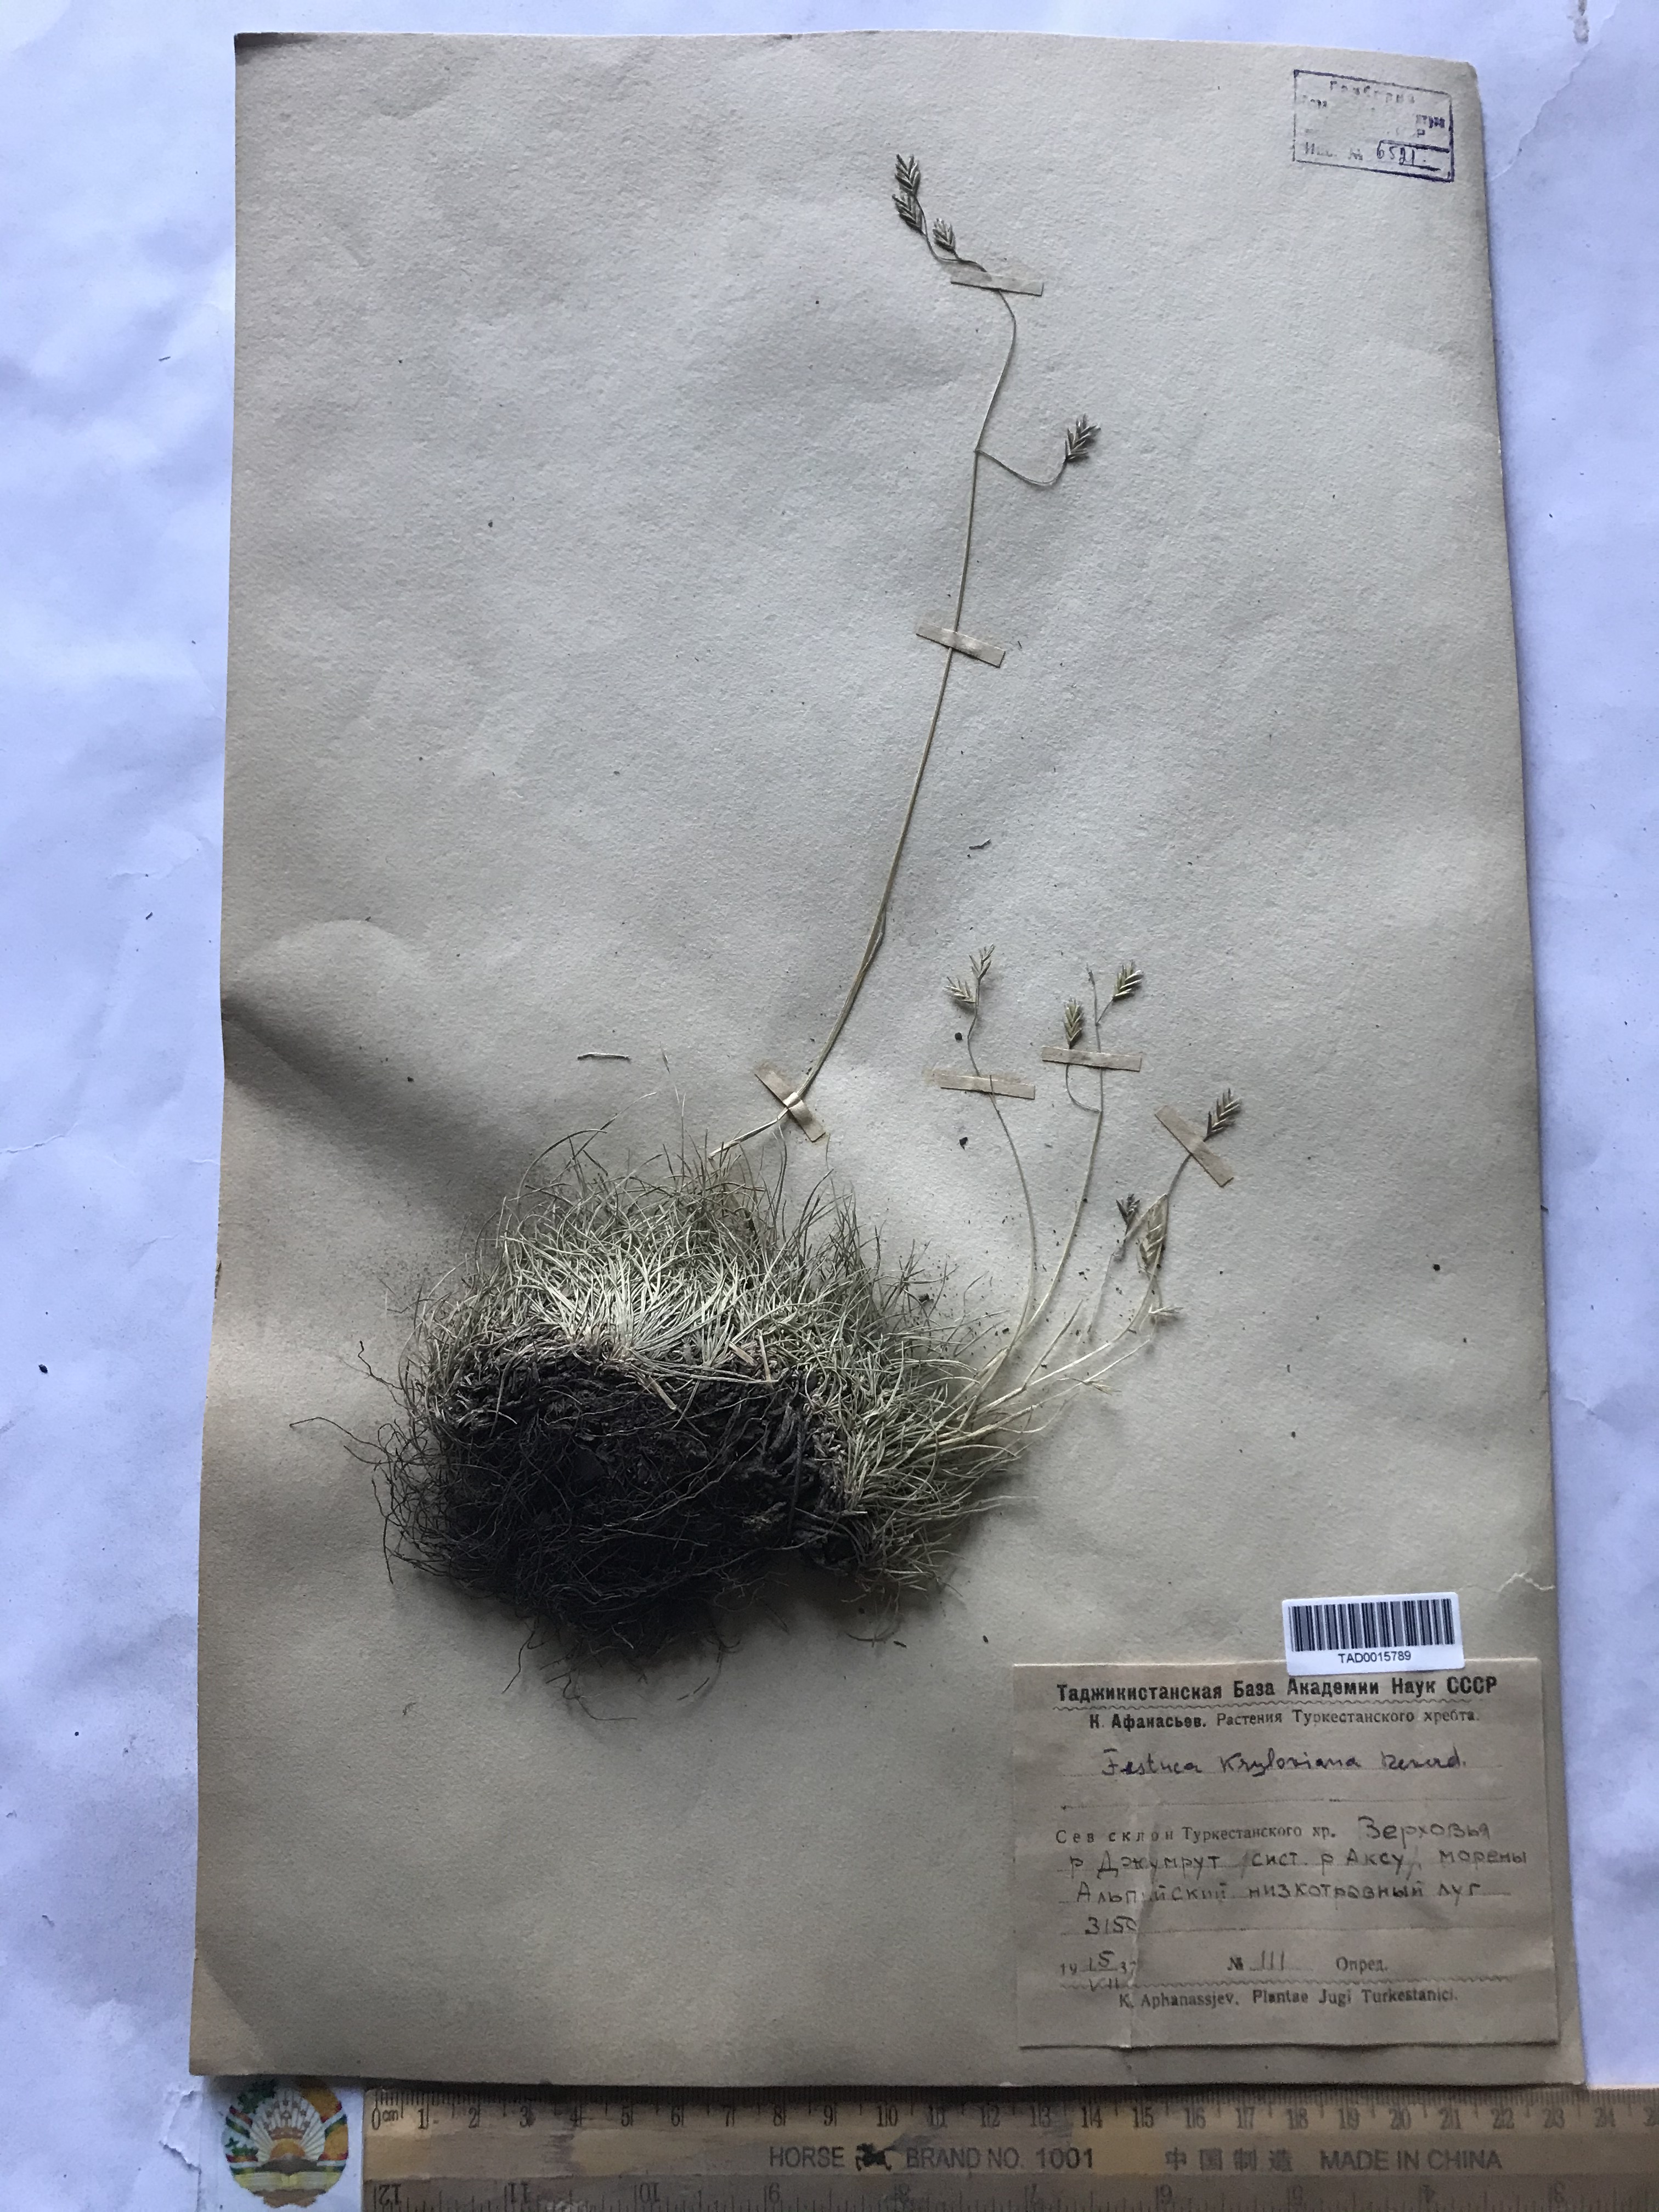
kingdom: Plantae
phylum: Tracheophyta
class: Liliopsida
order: Poales
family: Poaceae
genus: Festuca
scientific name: Festuca
